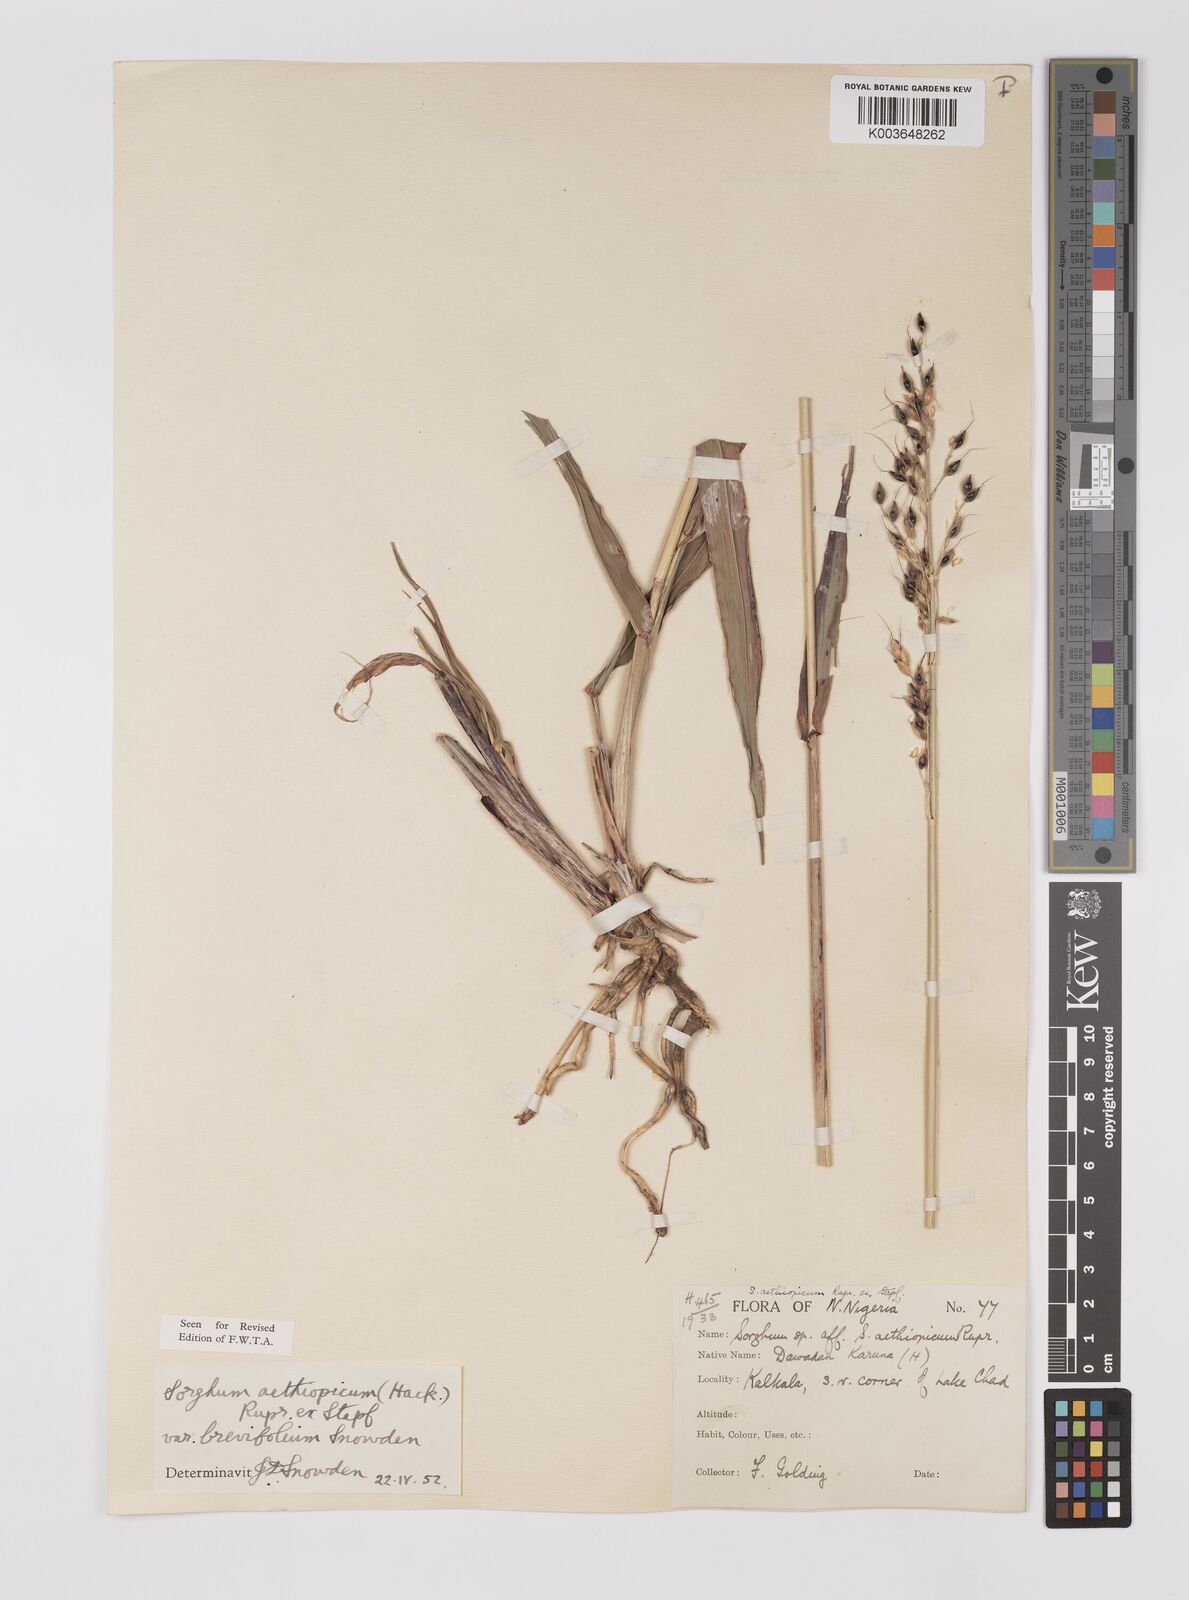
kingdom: Plantae
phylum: Tracheophyta
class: Liliopsida
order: Poales
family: Poaceae
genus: Sorghum
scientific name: Sorghum arundinaceum
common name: Sorghum
